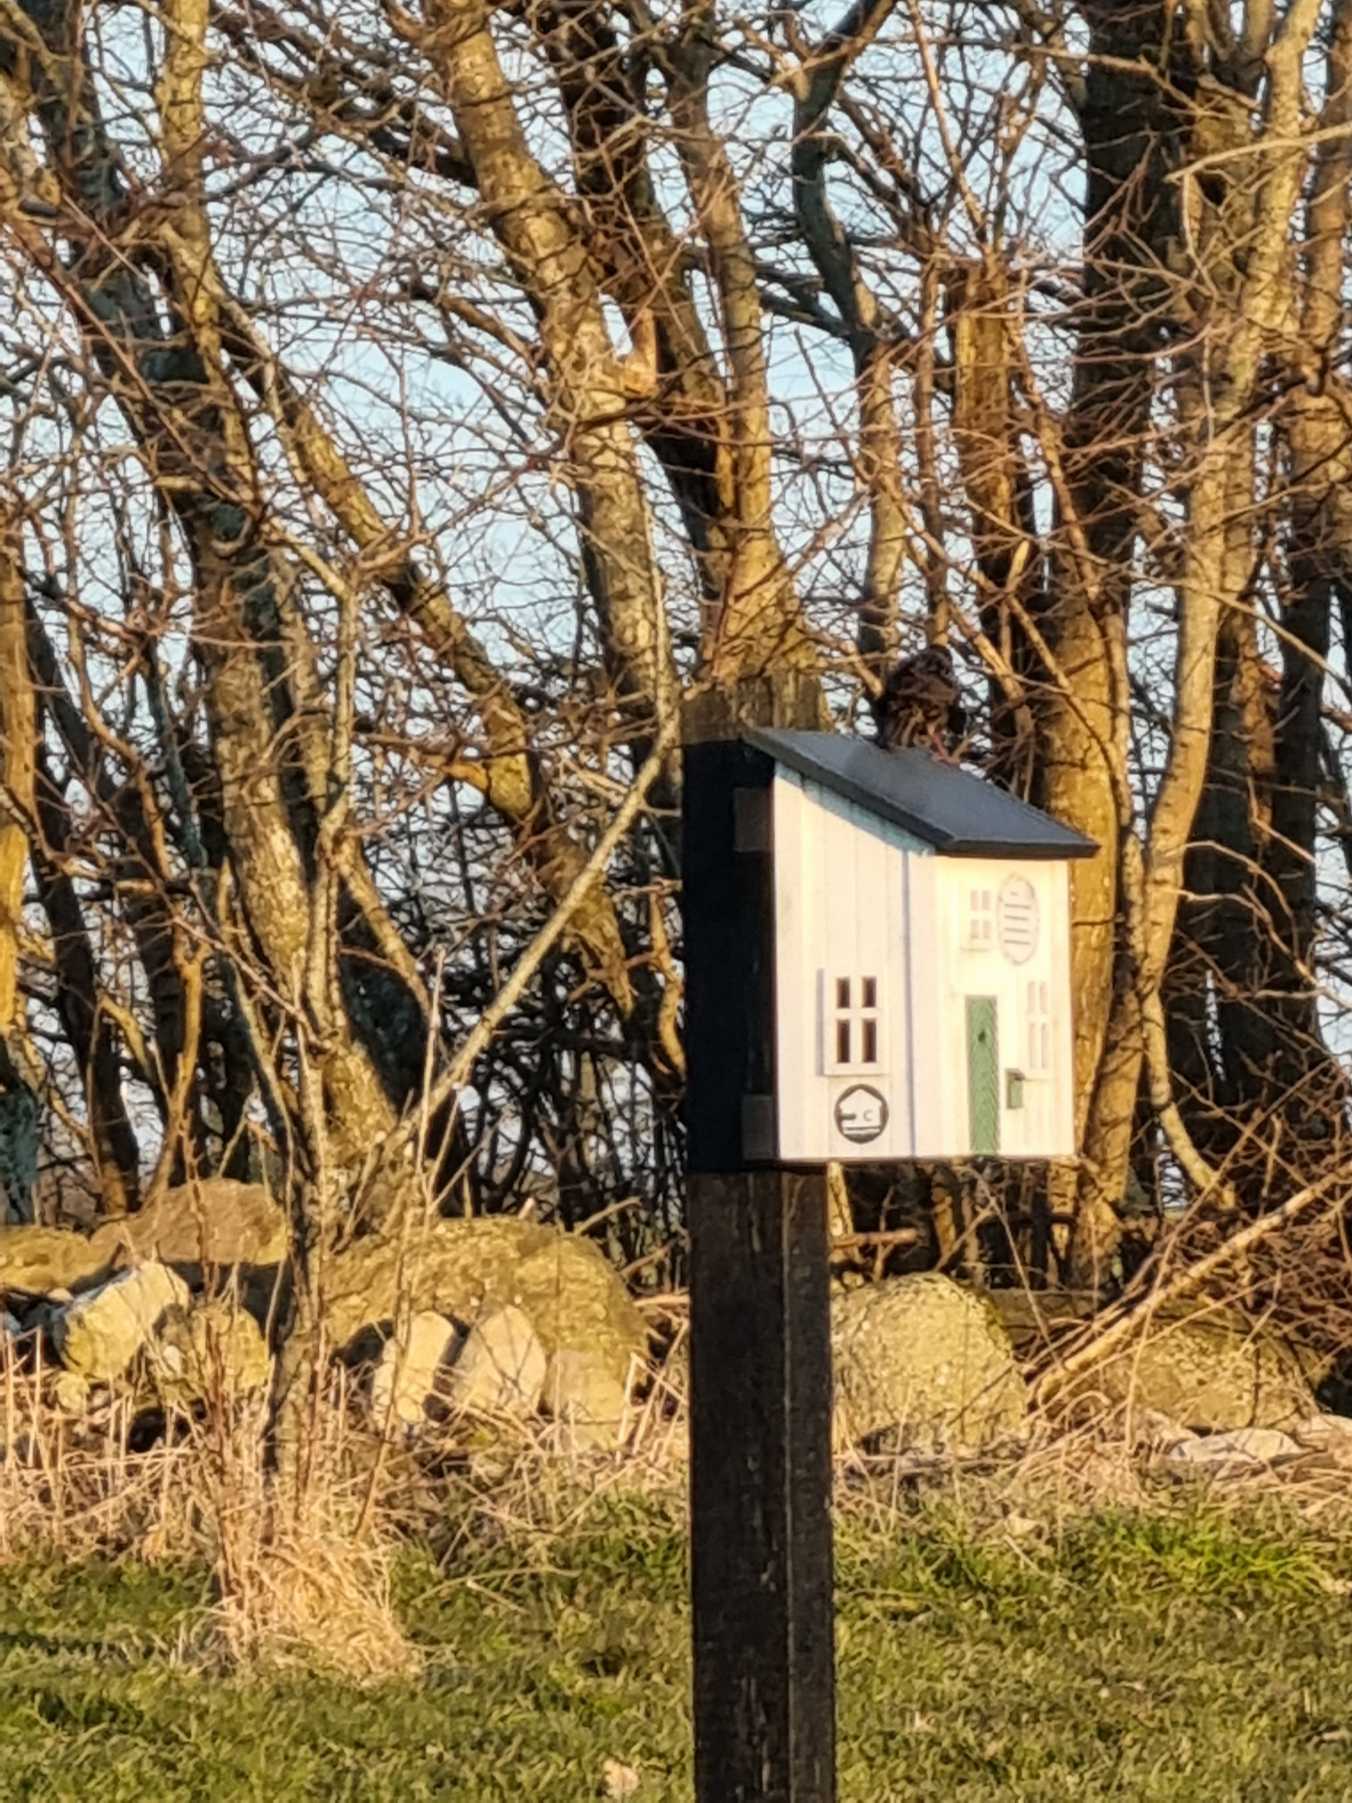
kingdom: Animalia
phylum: Chordata
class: Aves
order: Passeriformes
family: Sturnidae
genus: Sturnus
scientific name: Sturnus vulgaris
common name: Stær
